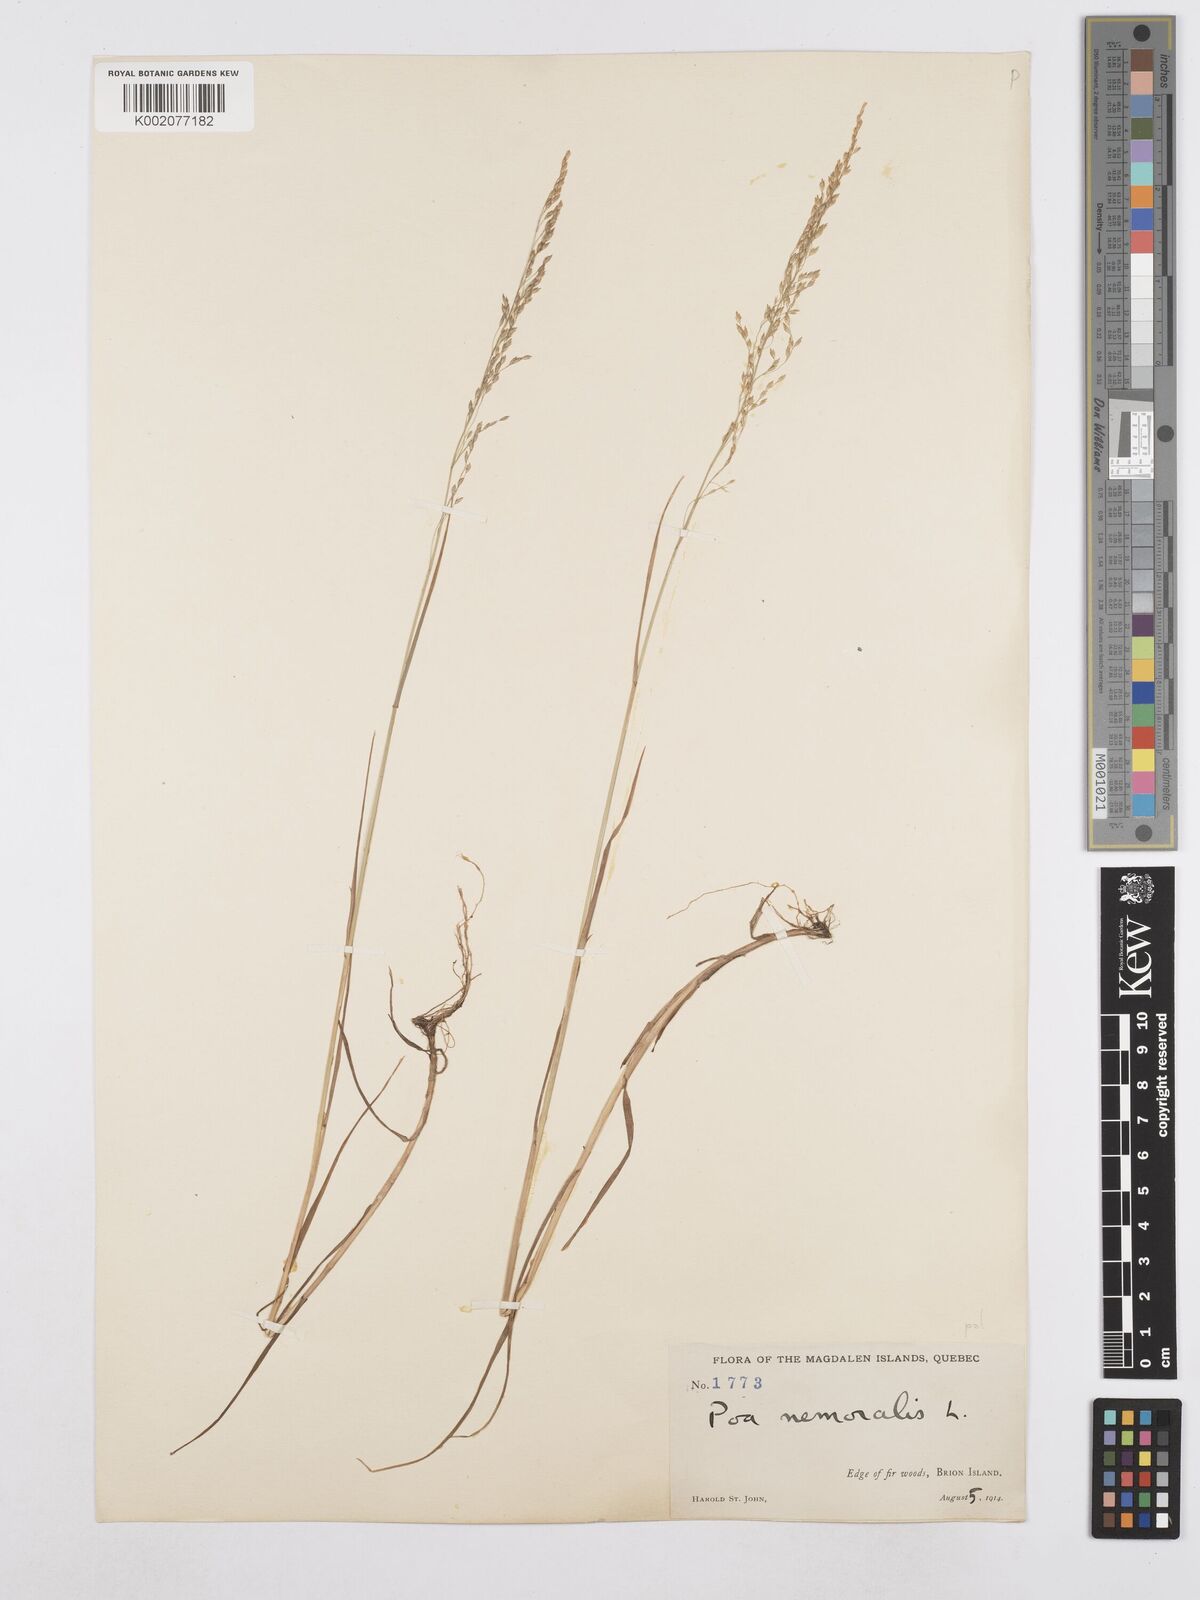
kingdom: Plantae
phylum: Tracheophyta
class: Liliopsida
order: Poales
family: Poaceae
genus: Poa
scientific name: Poa nemoralis
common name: Wood bluegrass
